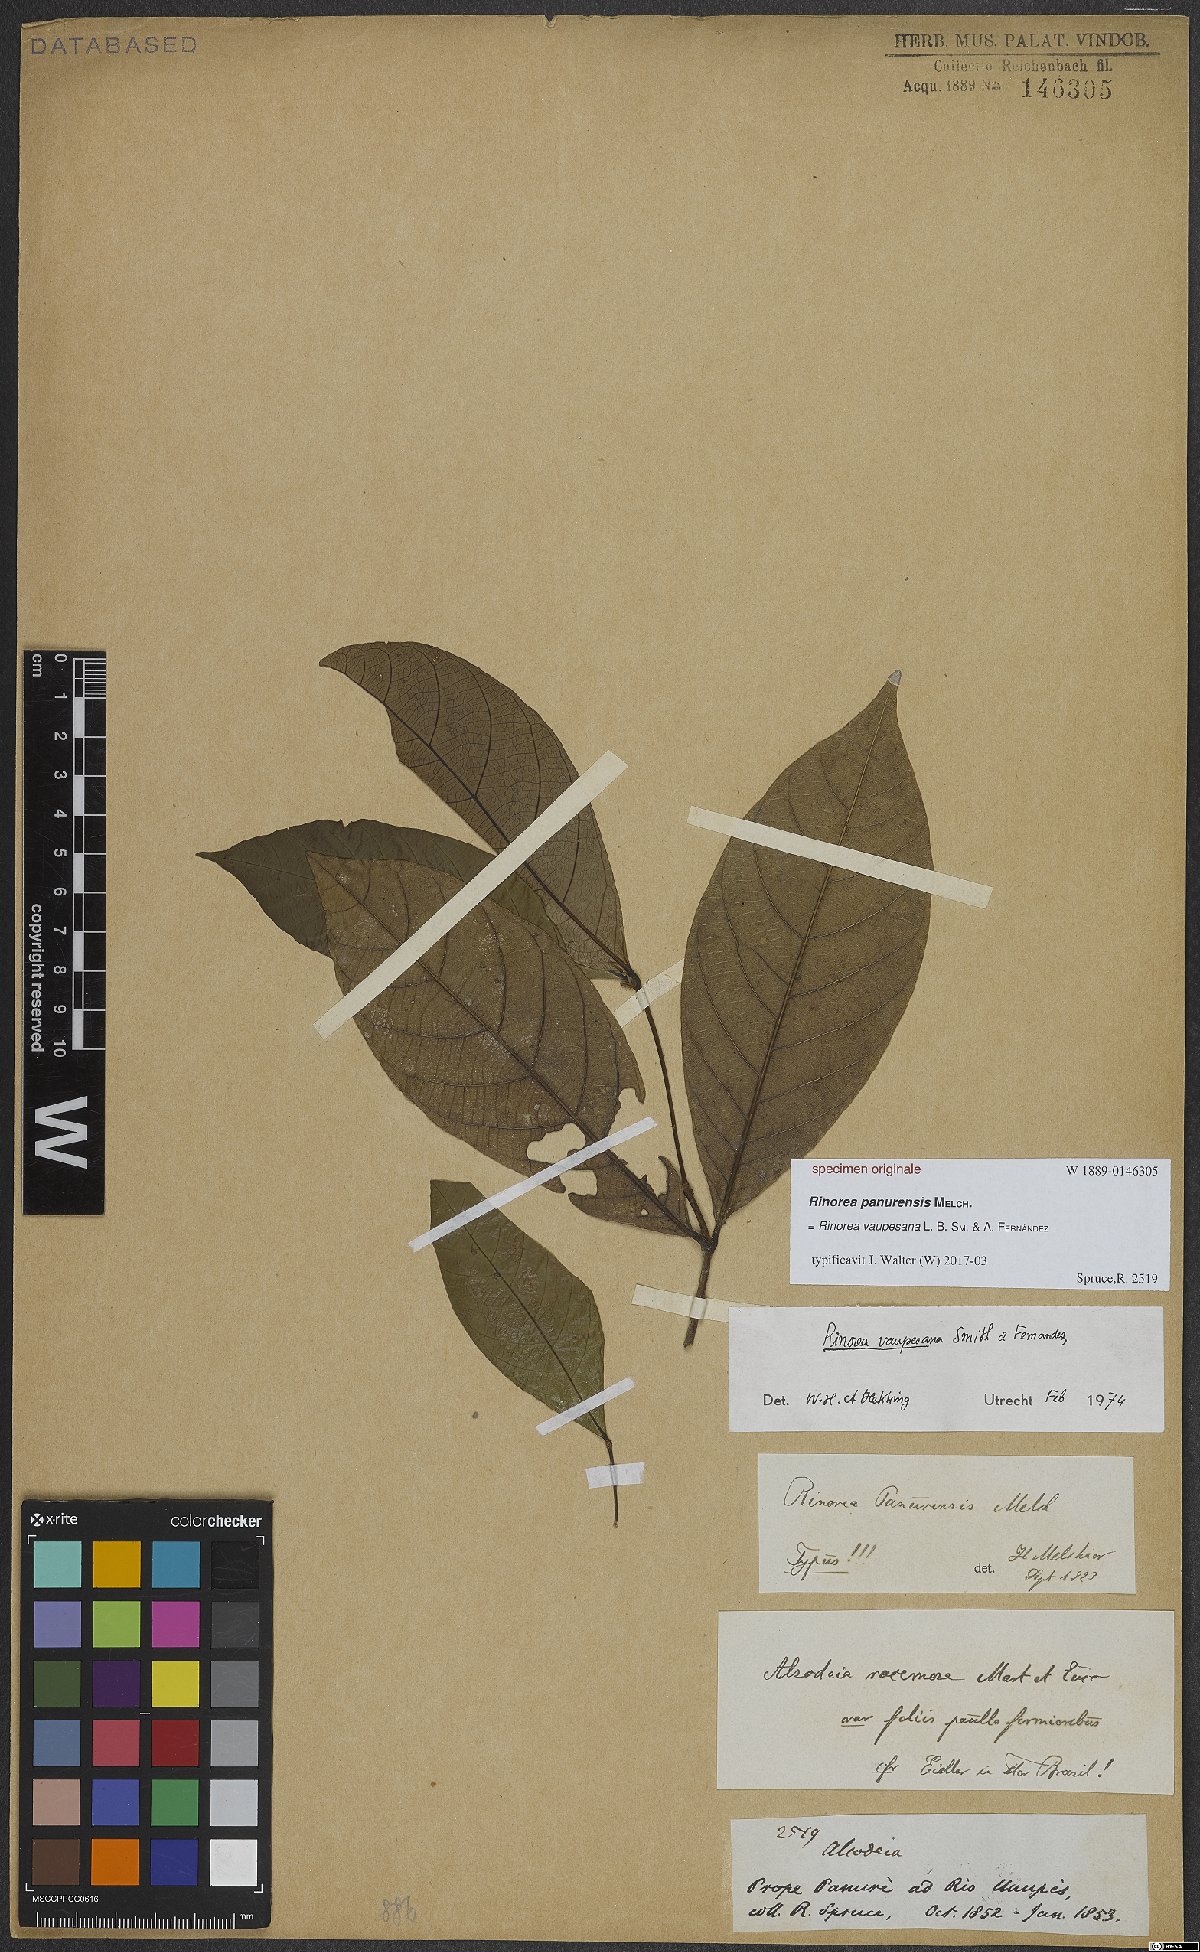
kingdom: Plantae
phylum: Tracheophyta
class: Magnoliopsida
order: Malpighiales
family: Violaceae
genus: Rinorea
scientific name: Rinorea vaupesana
